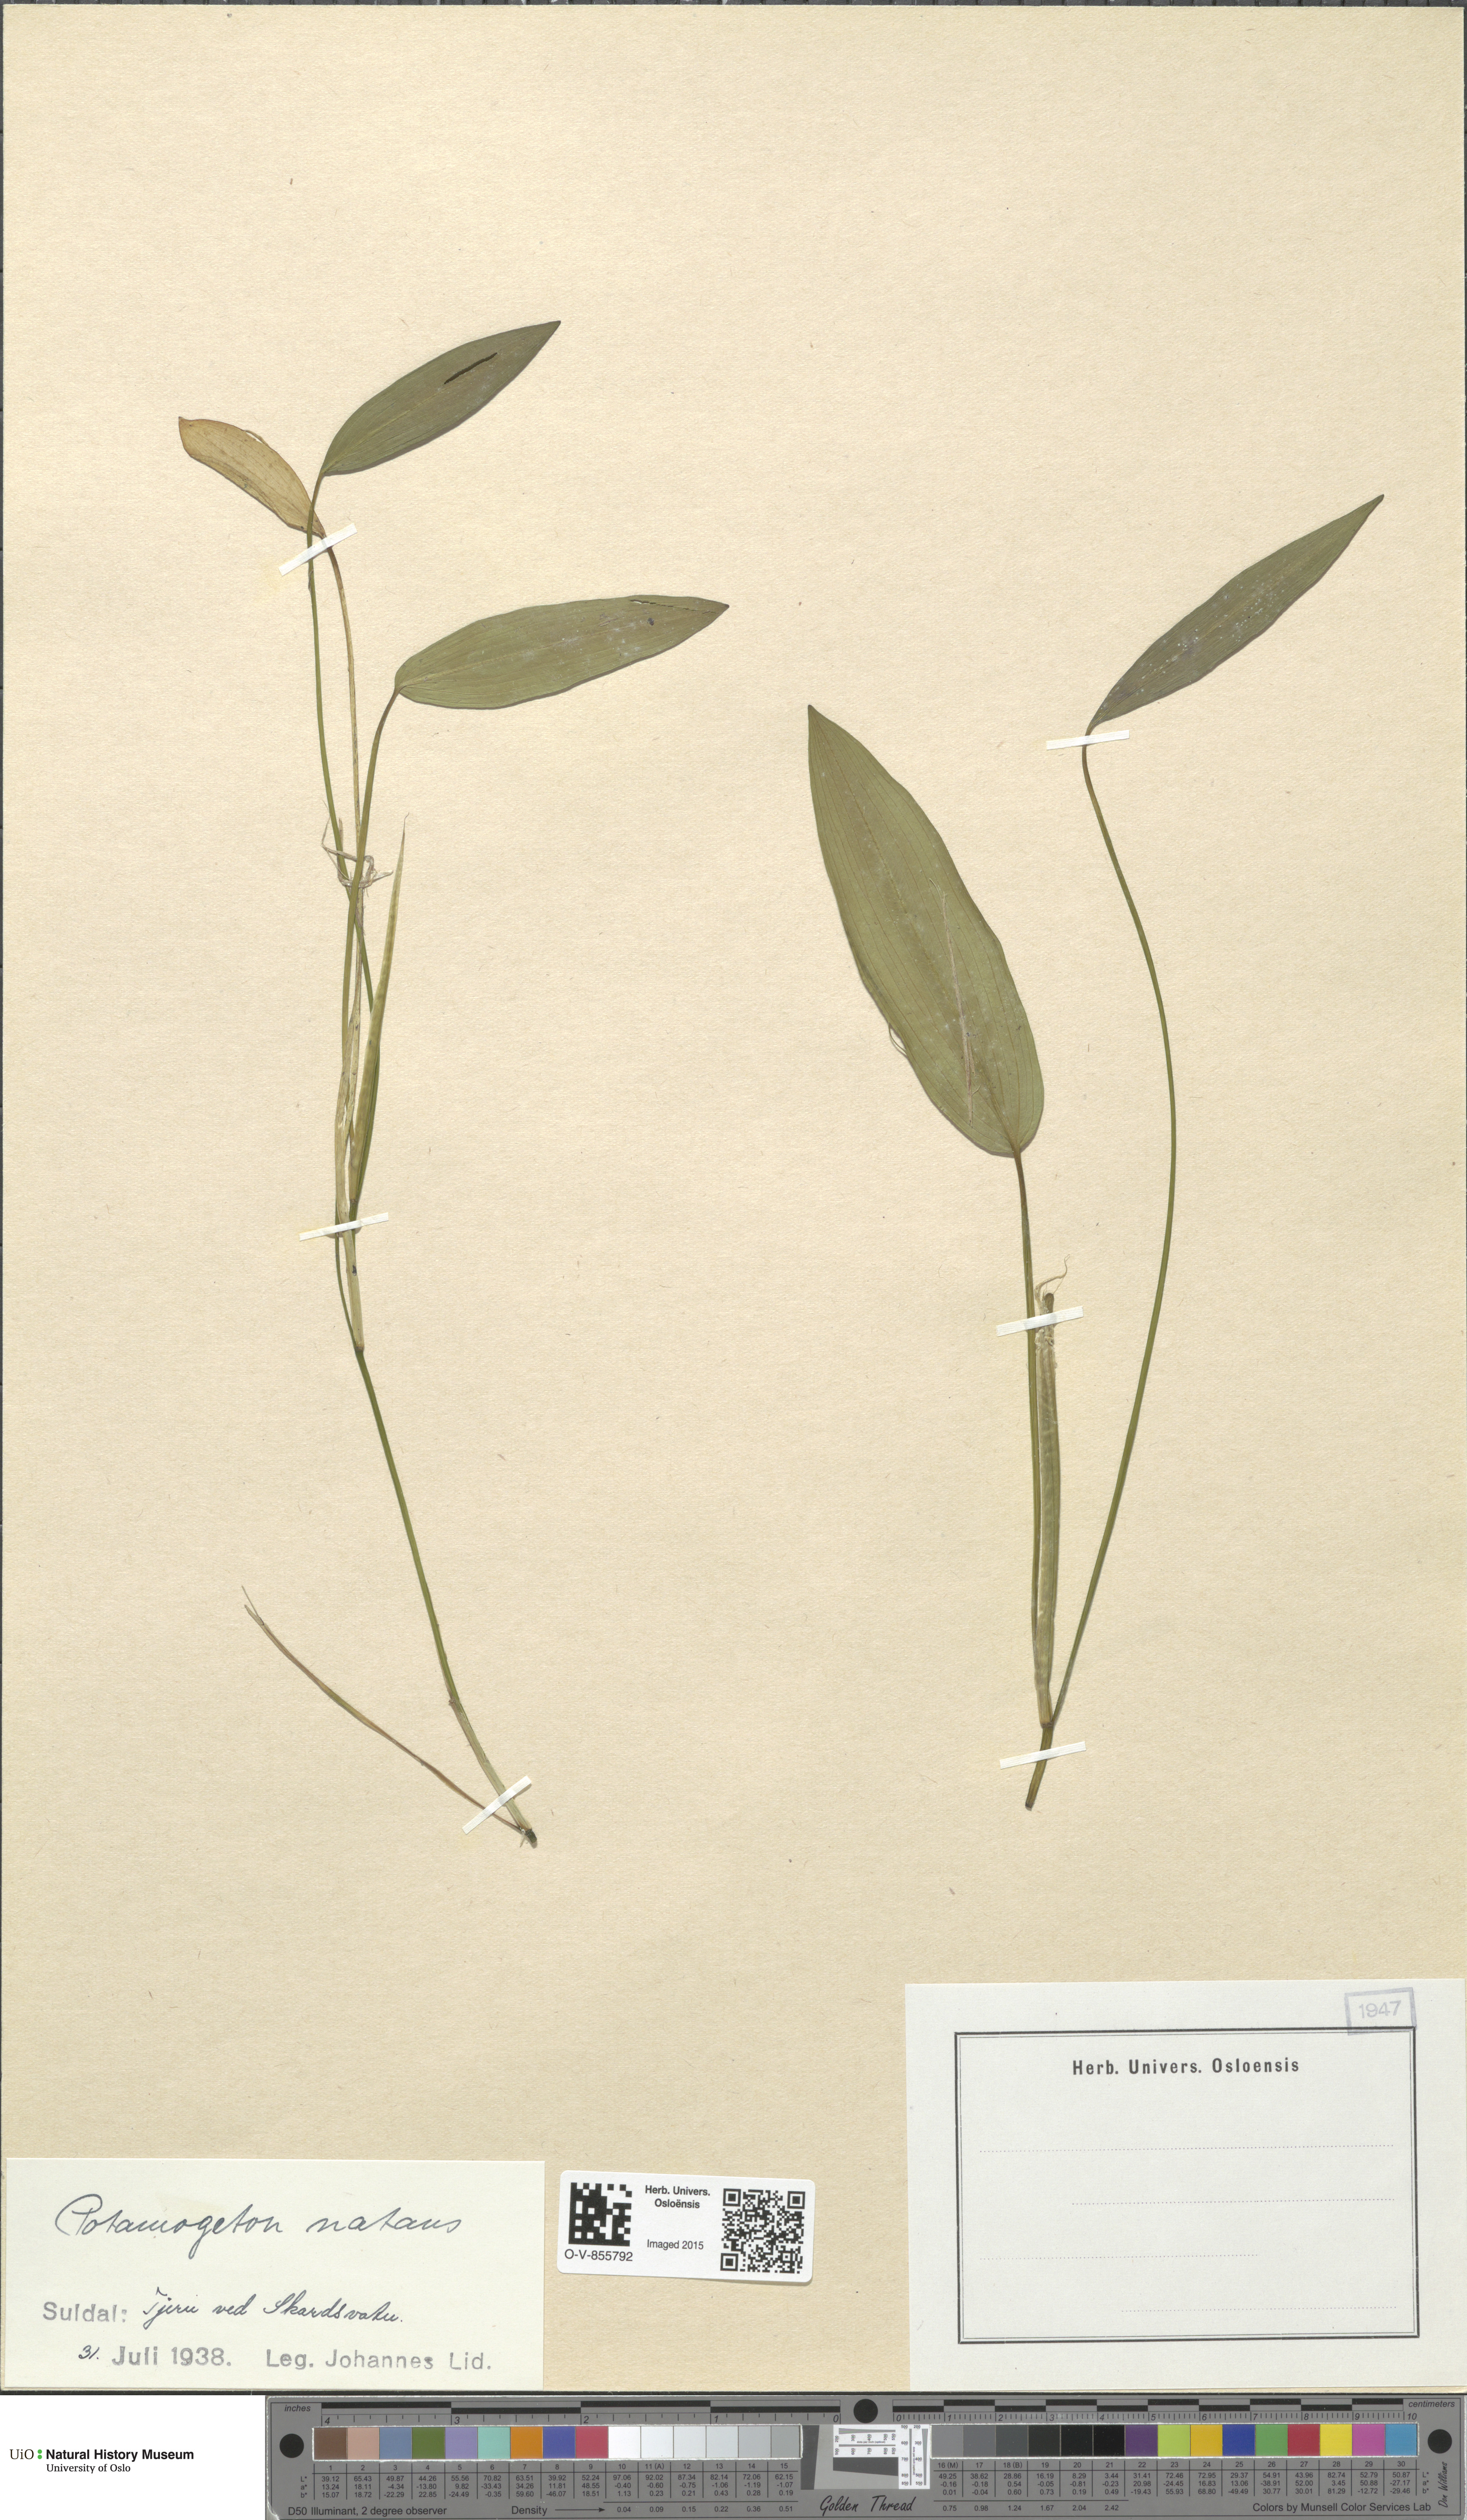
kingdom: Plantae
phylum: Tracheophyta
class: Liliopsida
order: Alismatales
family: Potamogetonaceae
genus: Potamogeton
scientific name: Potamogeton natans
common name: Broad-leaved pondweed
